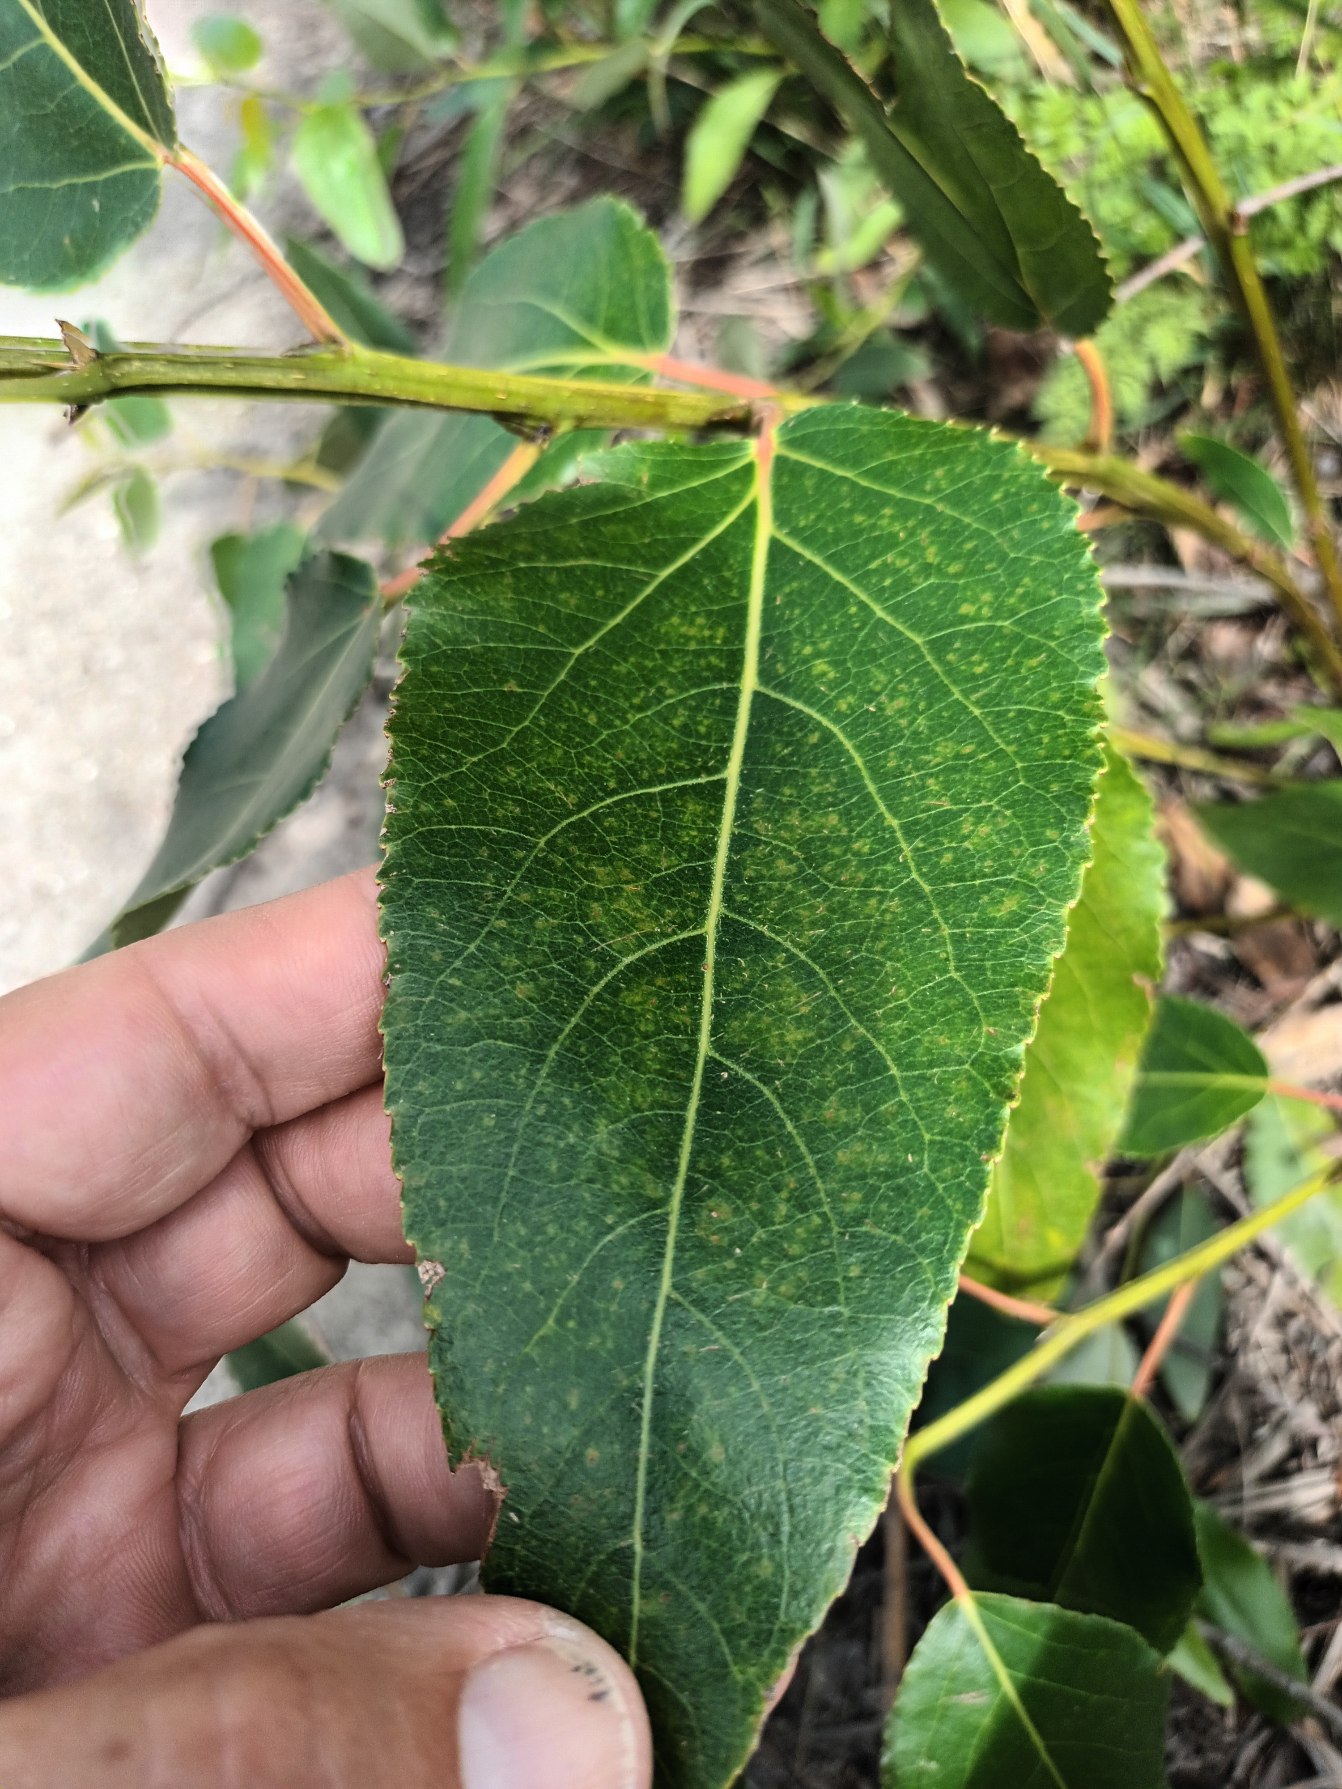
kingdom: Plantae
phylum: Tracheophyta
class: Magnoliopsida
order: Malpighiales
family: Salicaceae
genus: Populus
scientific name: Populus jackii
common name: Engelsk poppel
